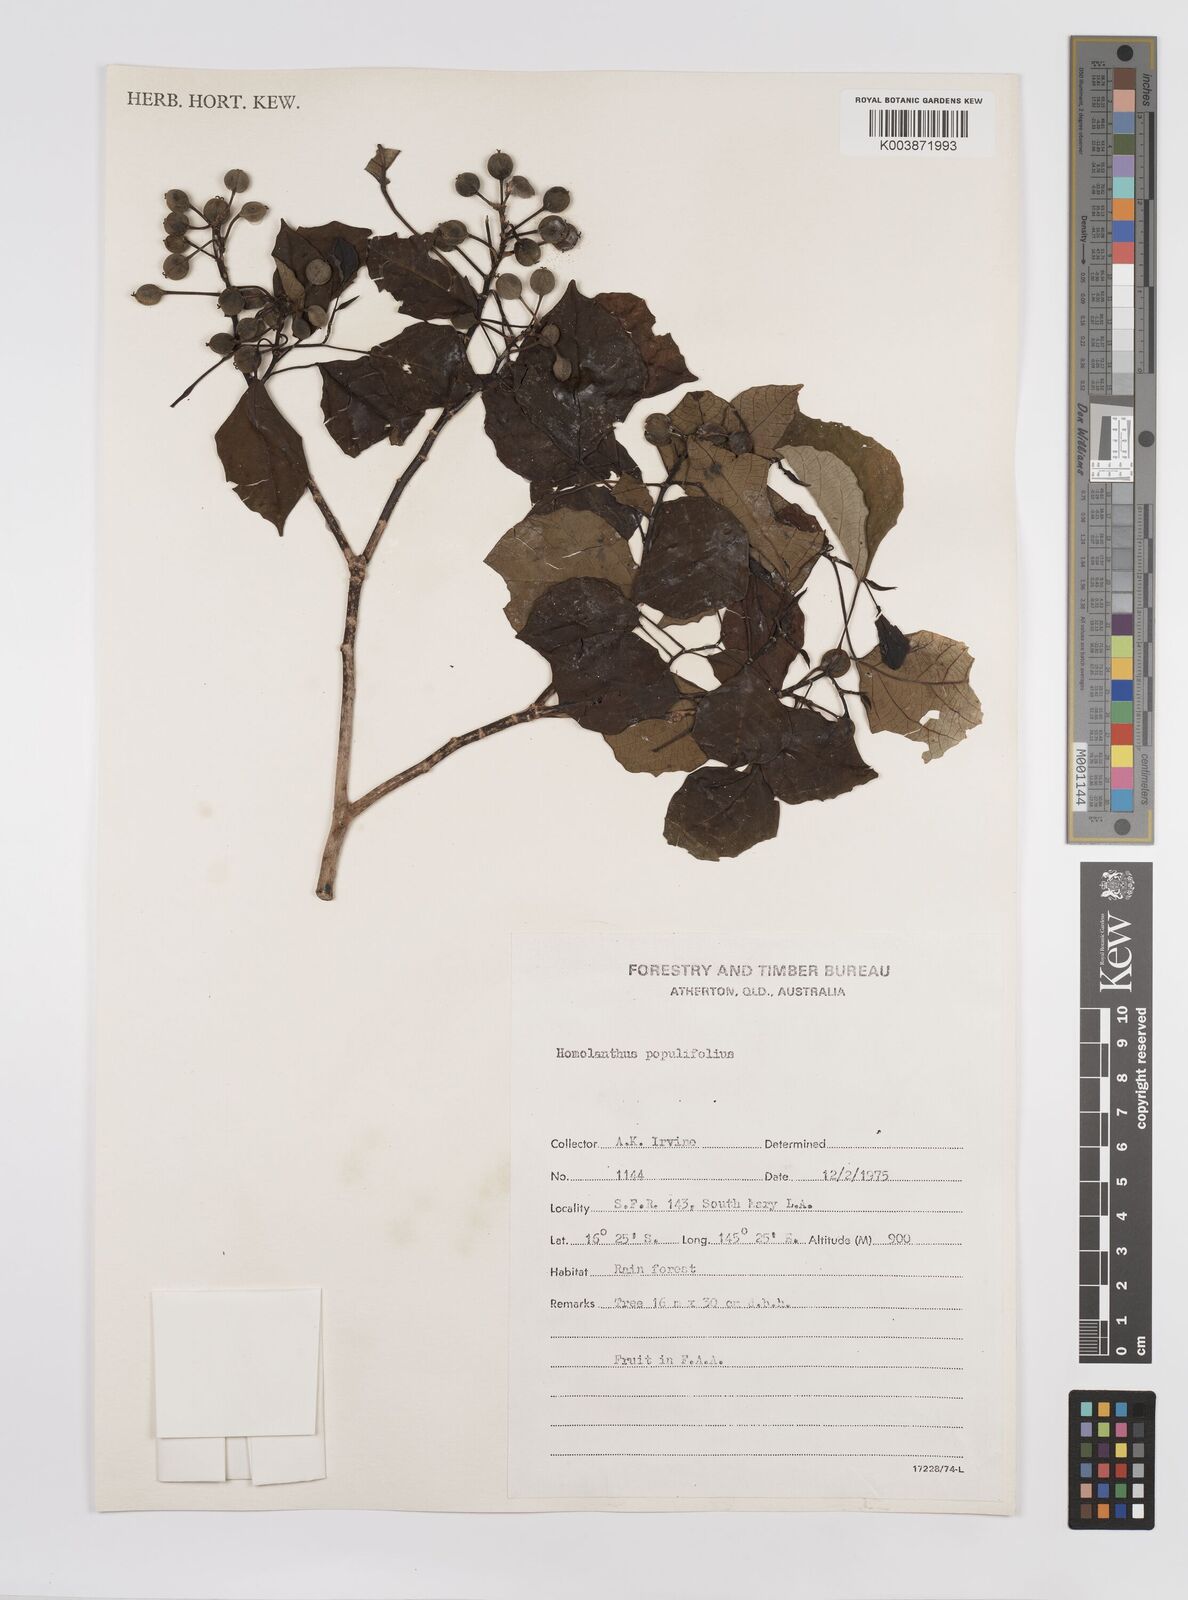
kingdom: Plantae
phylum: Tracheophyta
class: Magnoliopsida
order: Malpighiales
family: Euphorbiaceae
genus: Homalanthus
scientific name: Homalanthus novoguineensis
